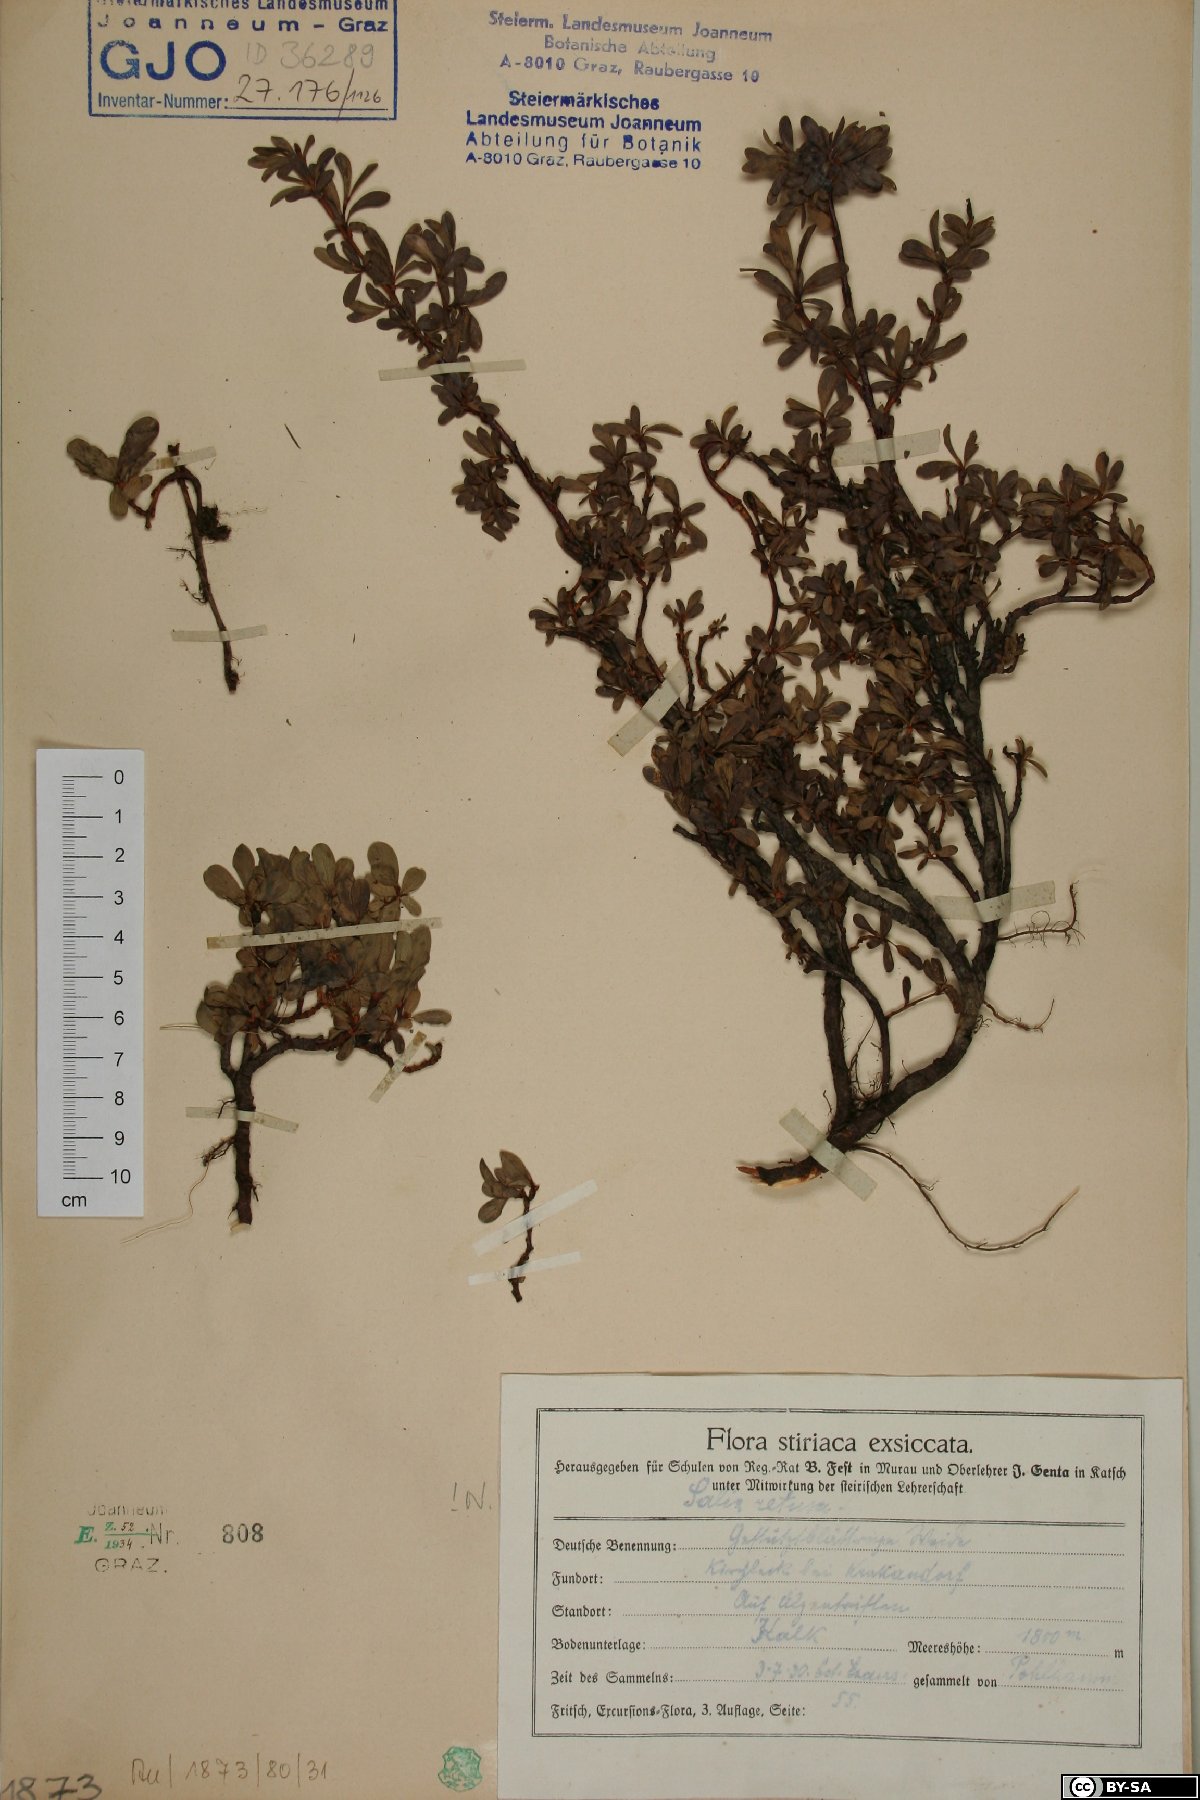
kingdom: Plantae
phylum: Tracheophyta
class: Magnoliopsida
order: Malpighiales
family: Salicaceae
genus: Salix
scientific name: Salix retusa
